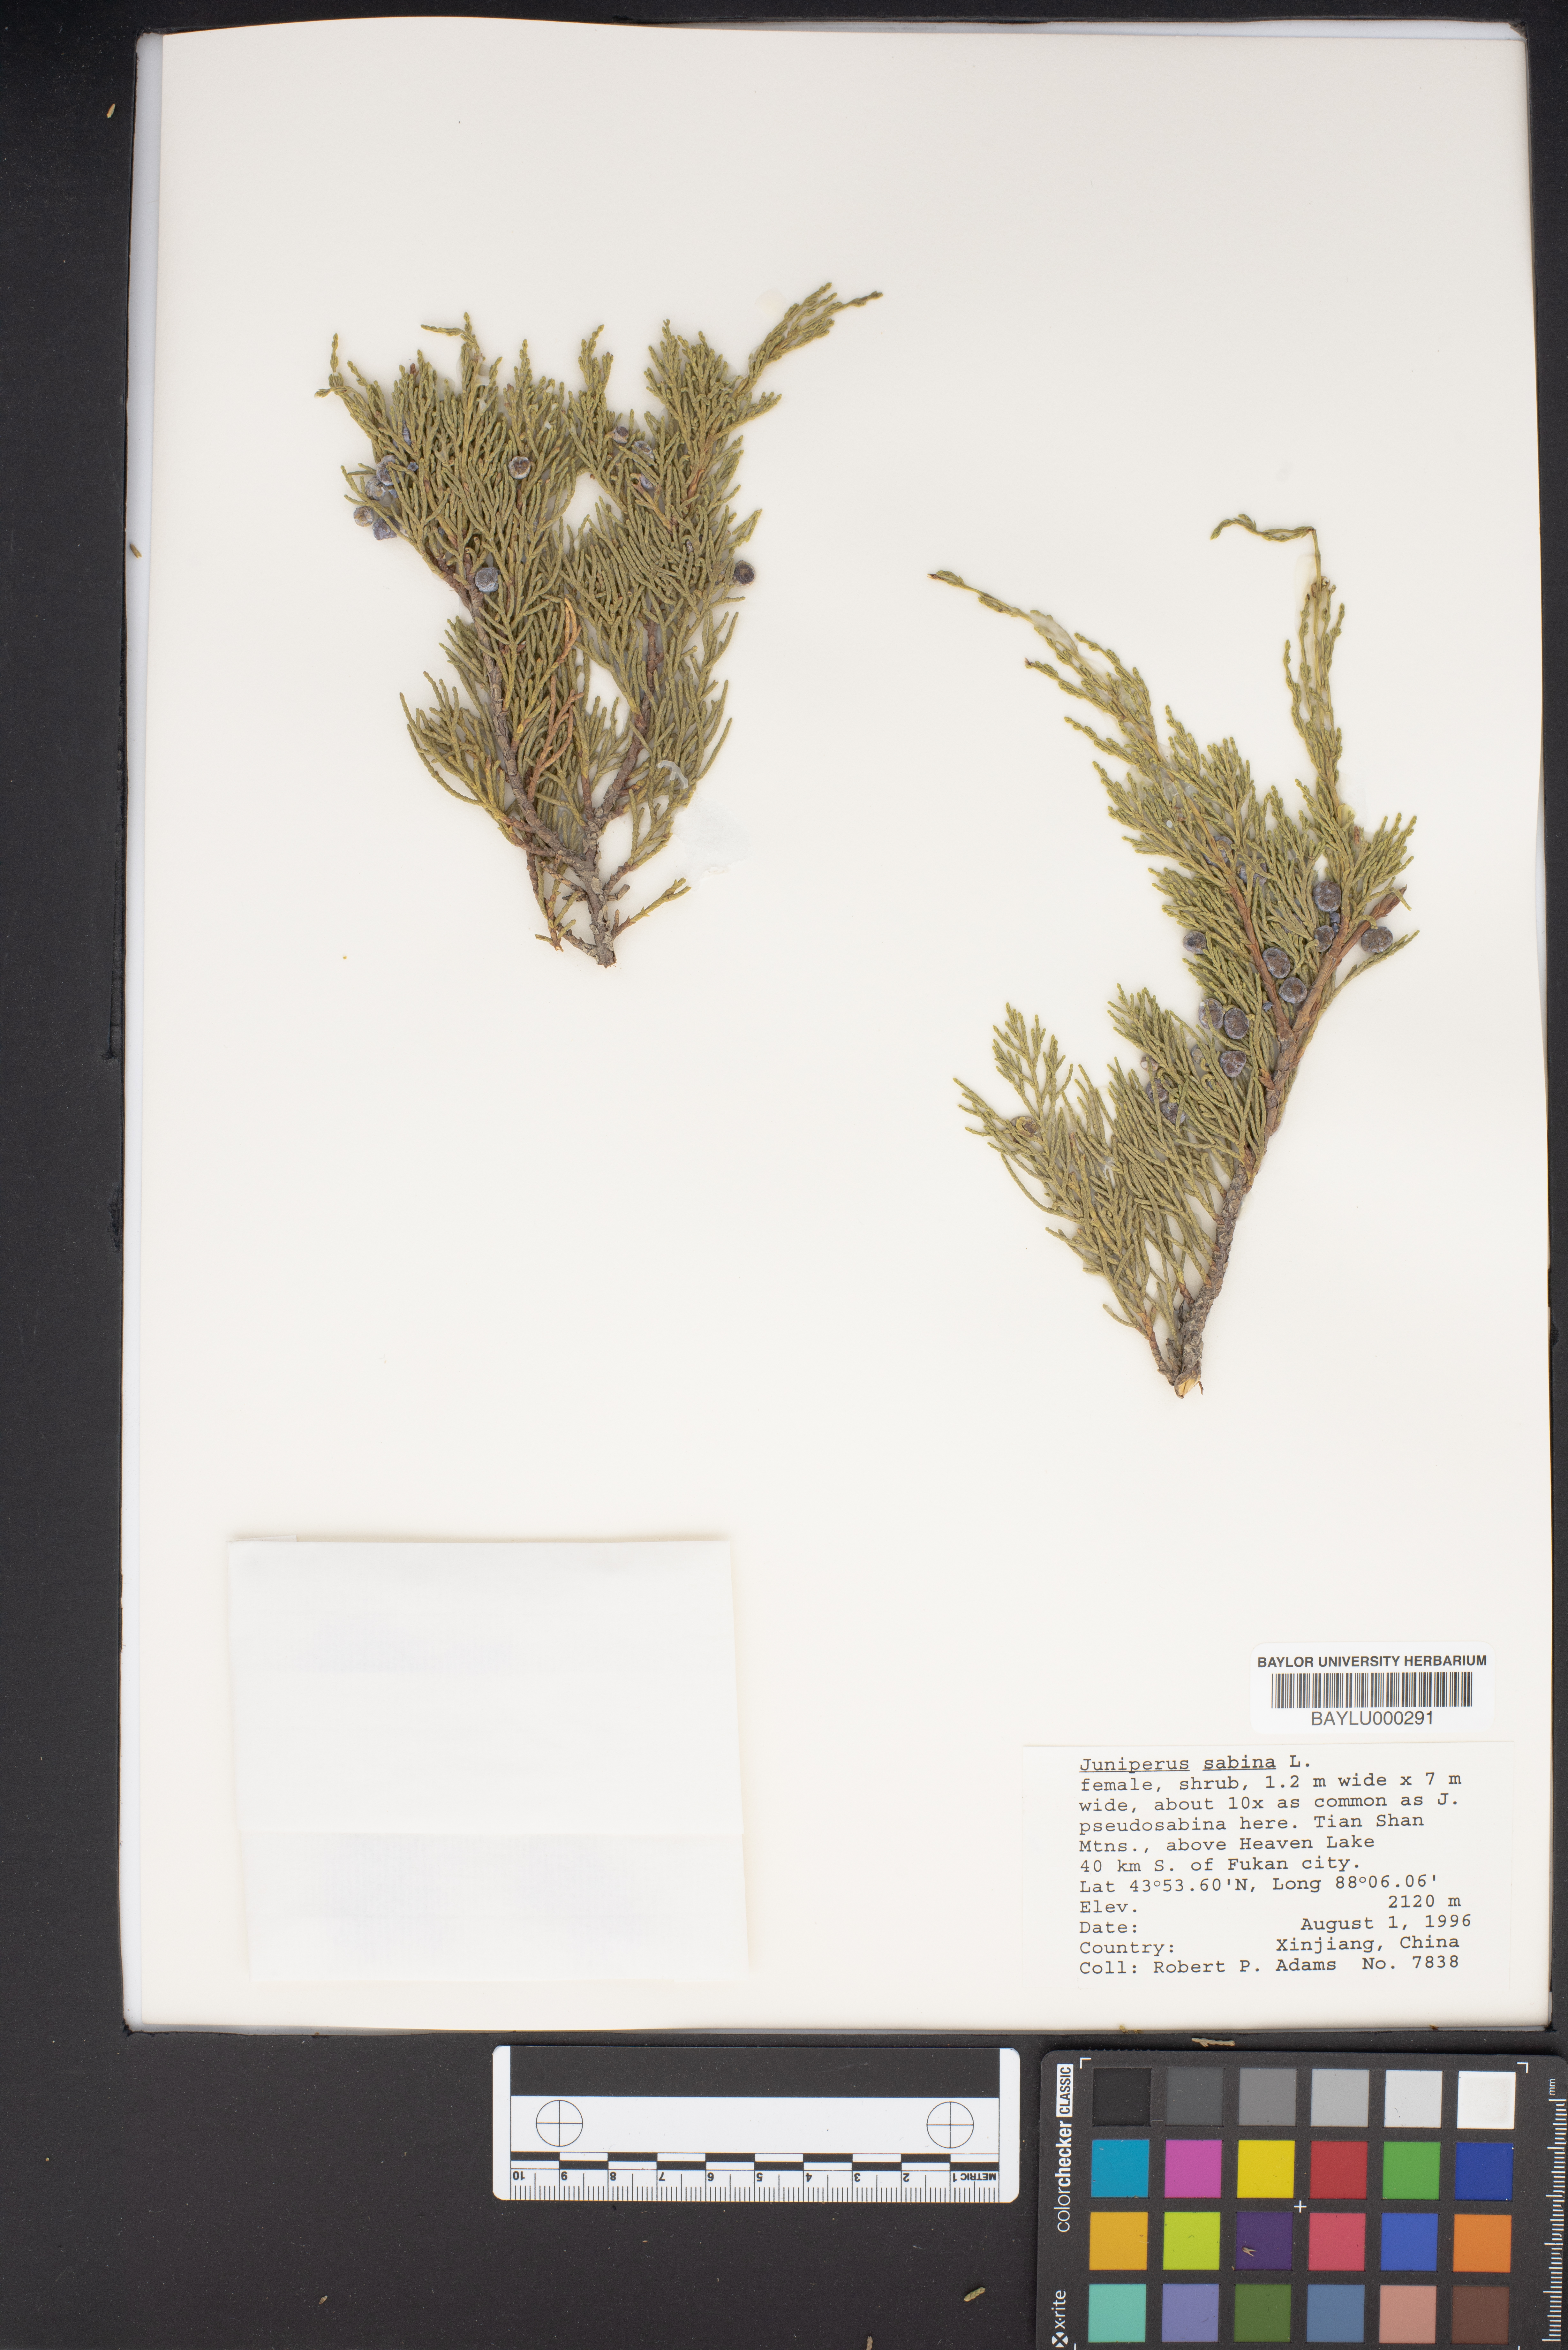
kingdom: Plantae
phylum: Tracheophyta
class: Pinopsida
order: Pinales
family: Cupressaceae
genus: Juniperus
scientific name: Juniperus sabina
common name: Savin
